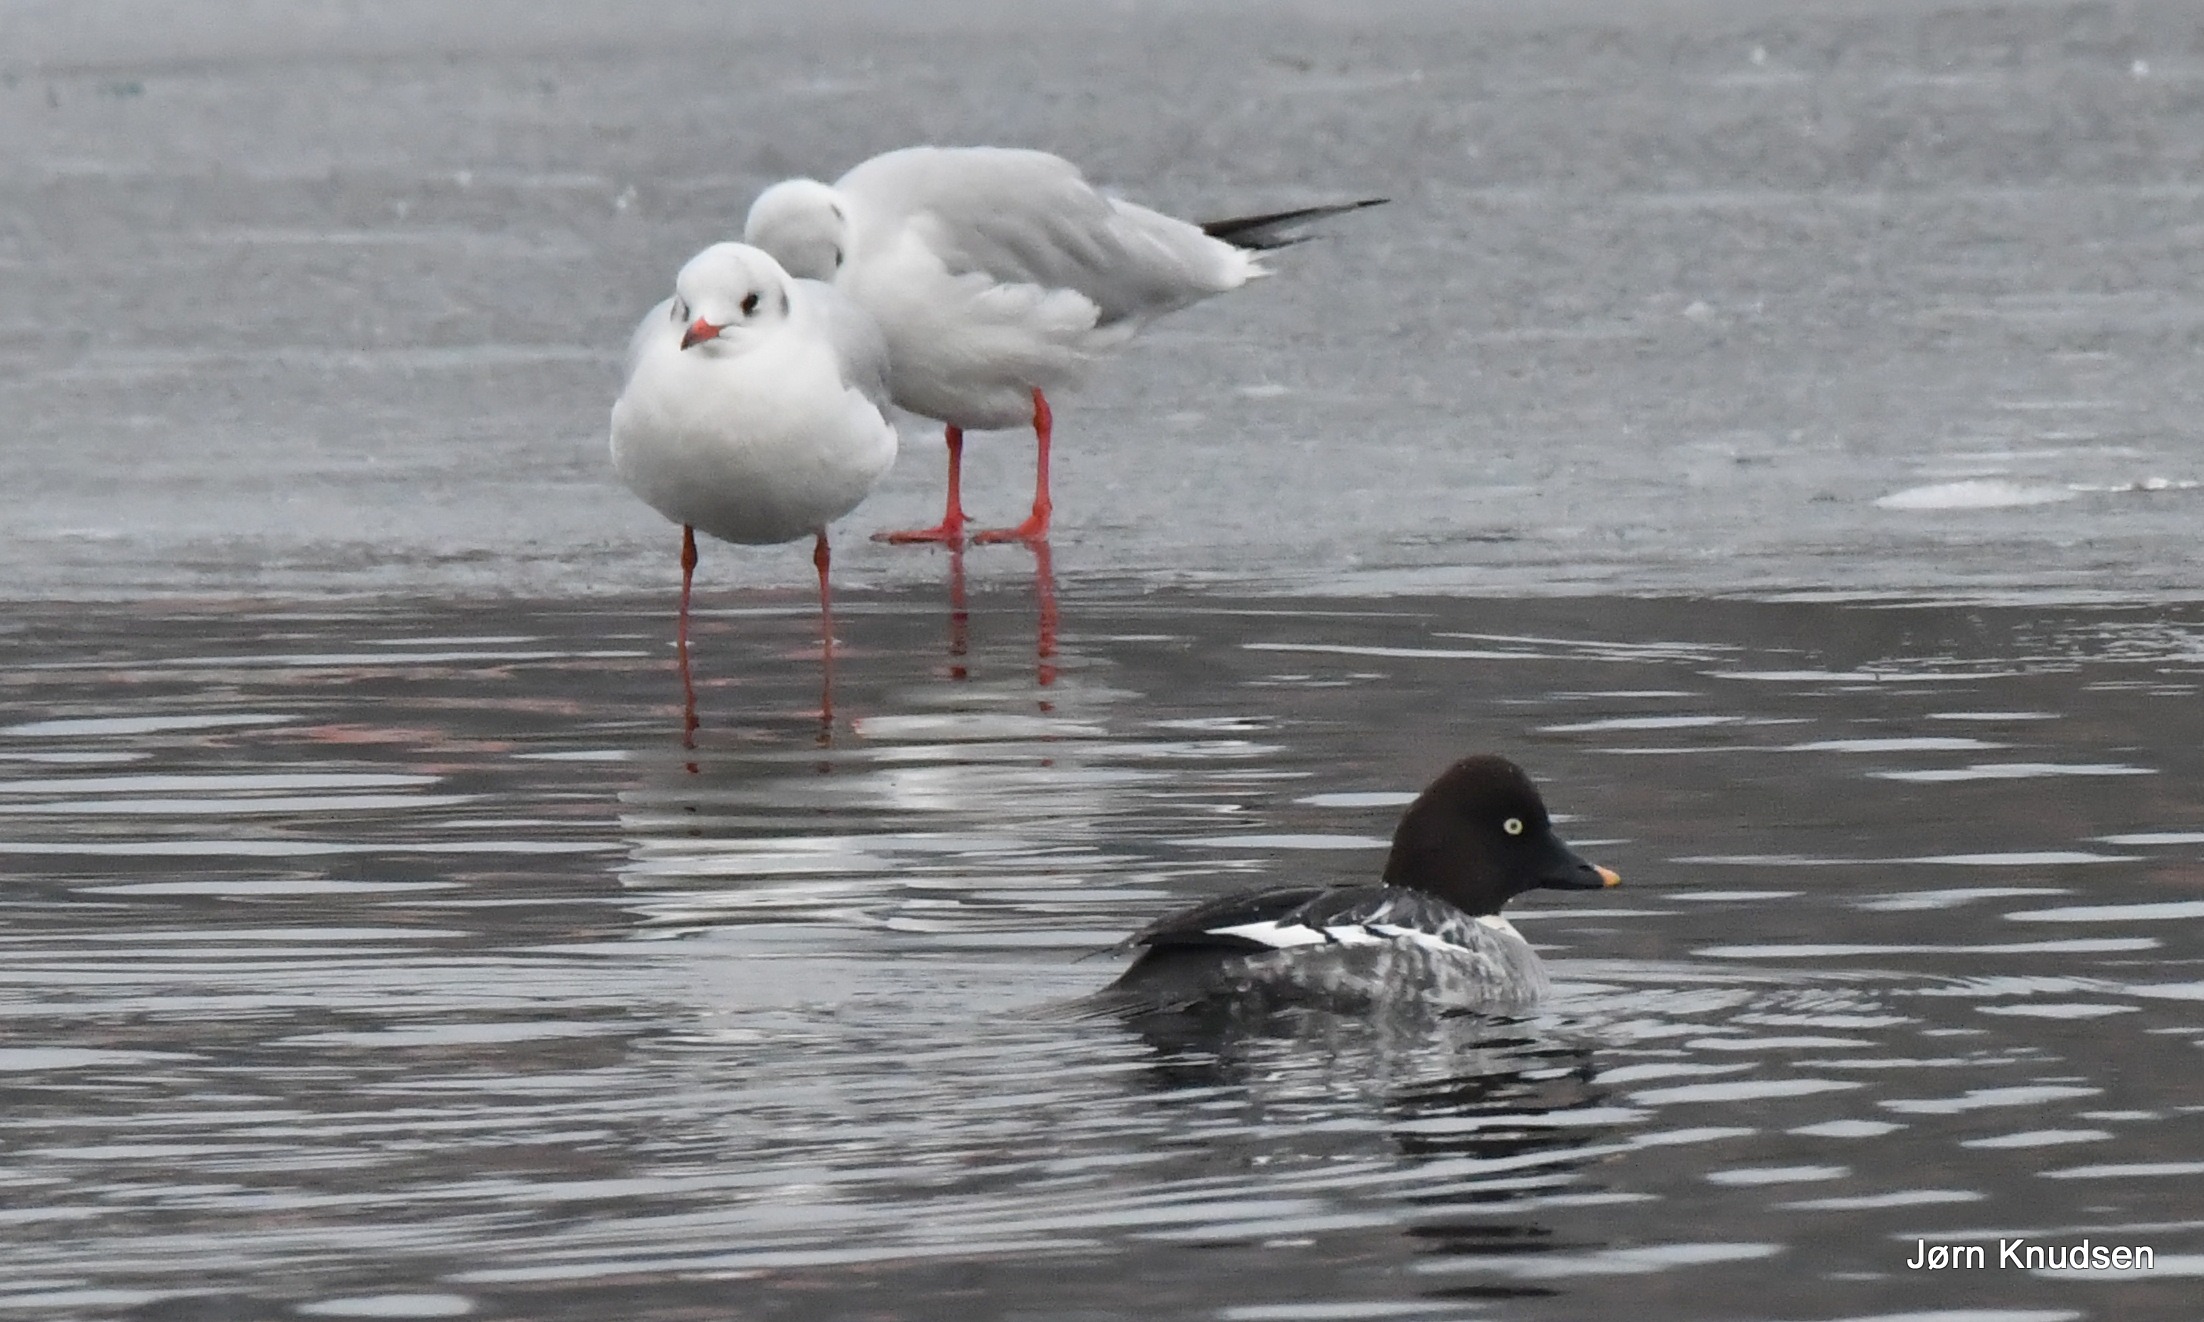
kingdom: Animalia
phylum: Chordata
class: Aves
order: Anseriformes
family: Anatidae
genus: Bucephala
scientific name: Bucephala clangula
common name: Hvinand
